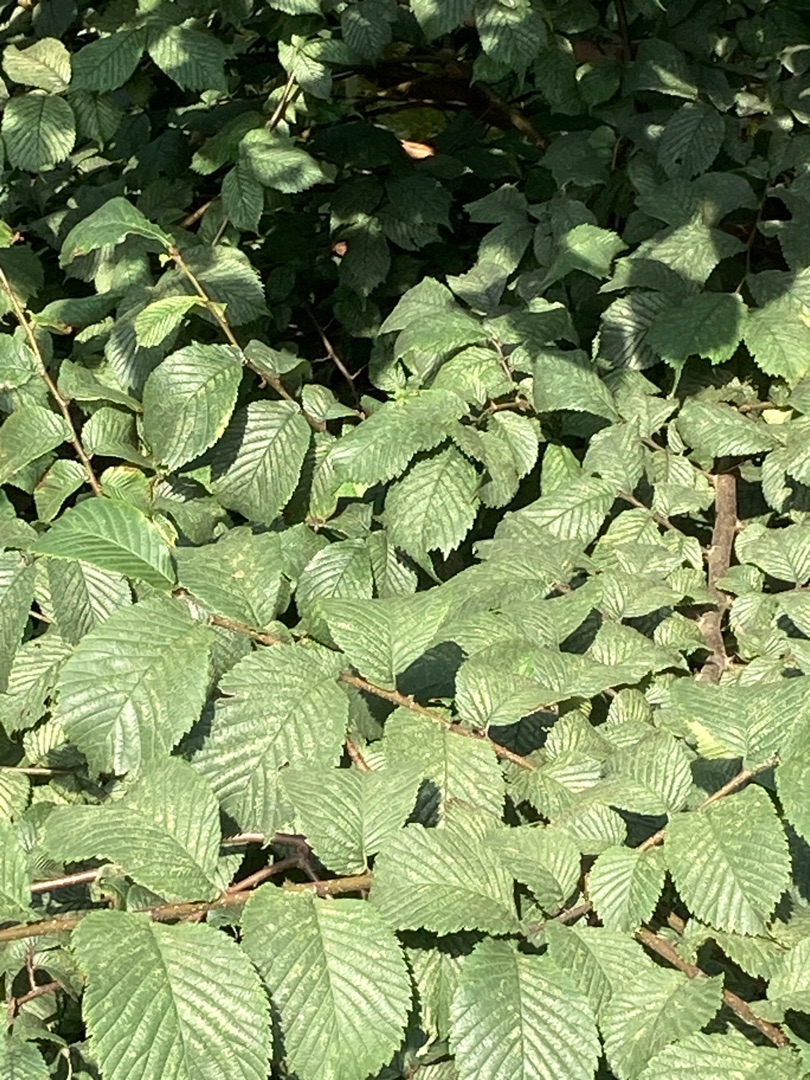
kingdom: Plantae
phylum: Tracheophyta
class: Magnoliopsida
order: Rosales
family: Ulmaceae
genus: Ulmus
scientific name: Ulmus glabra
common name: Skov-elm/storbladet elm
